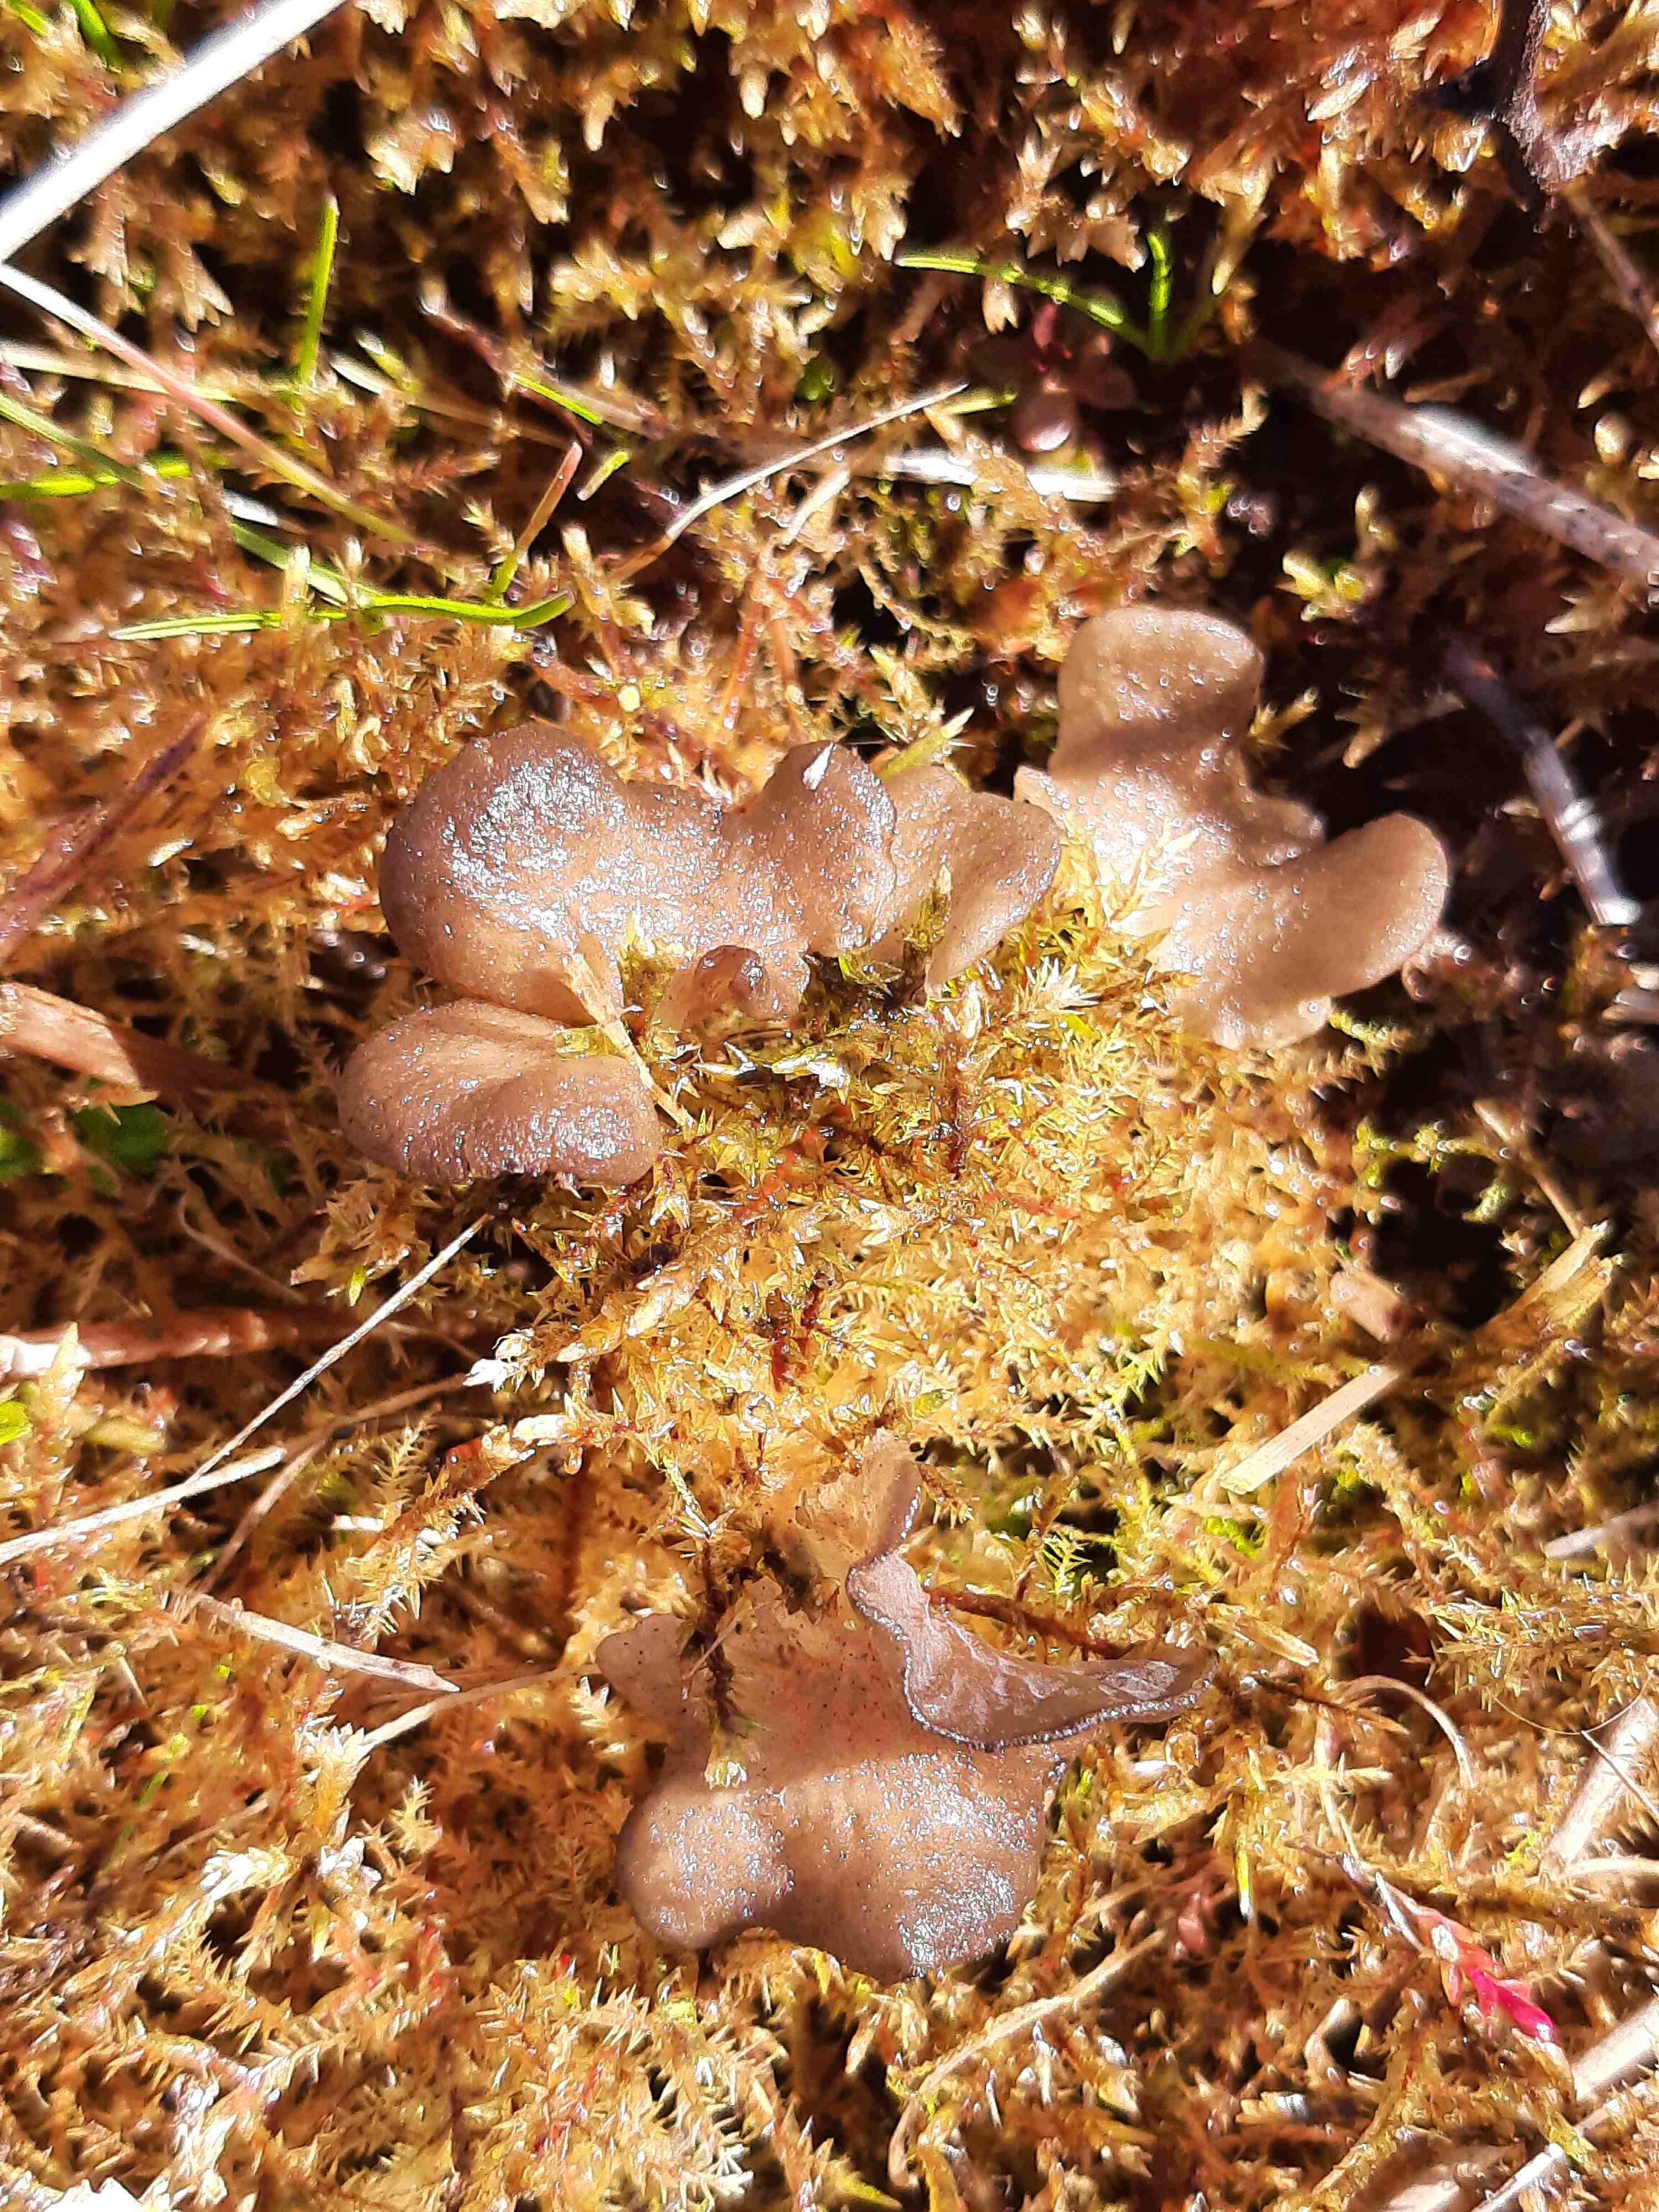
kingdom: Fungi
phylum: Basidiomycota
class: Agaricomycetes
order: Agaricales
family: Hygrophoraceae
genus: Arrhenia
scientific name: Arrhenia lobata
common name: siddende fontænehat
